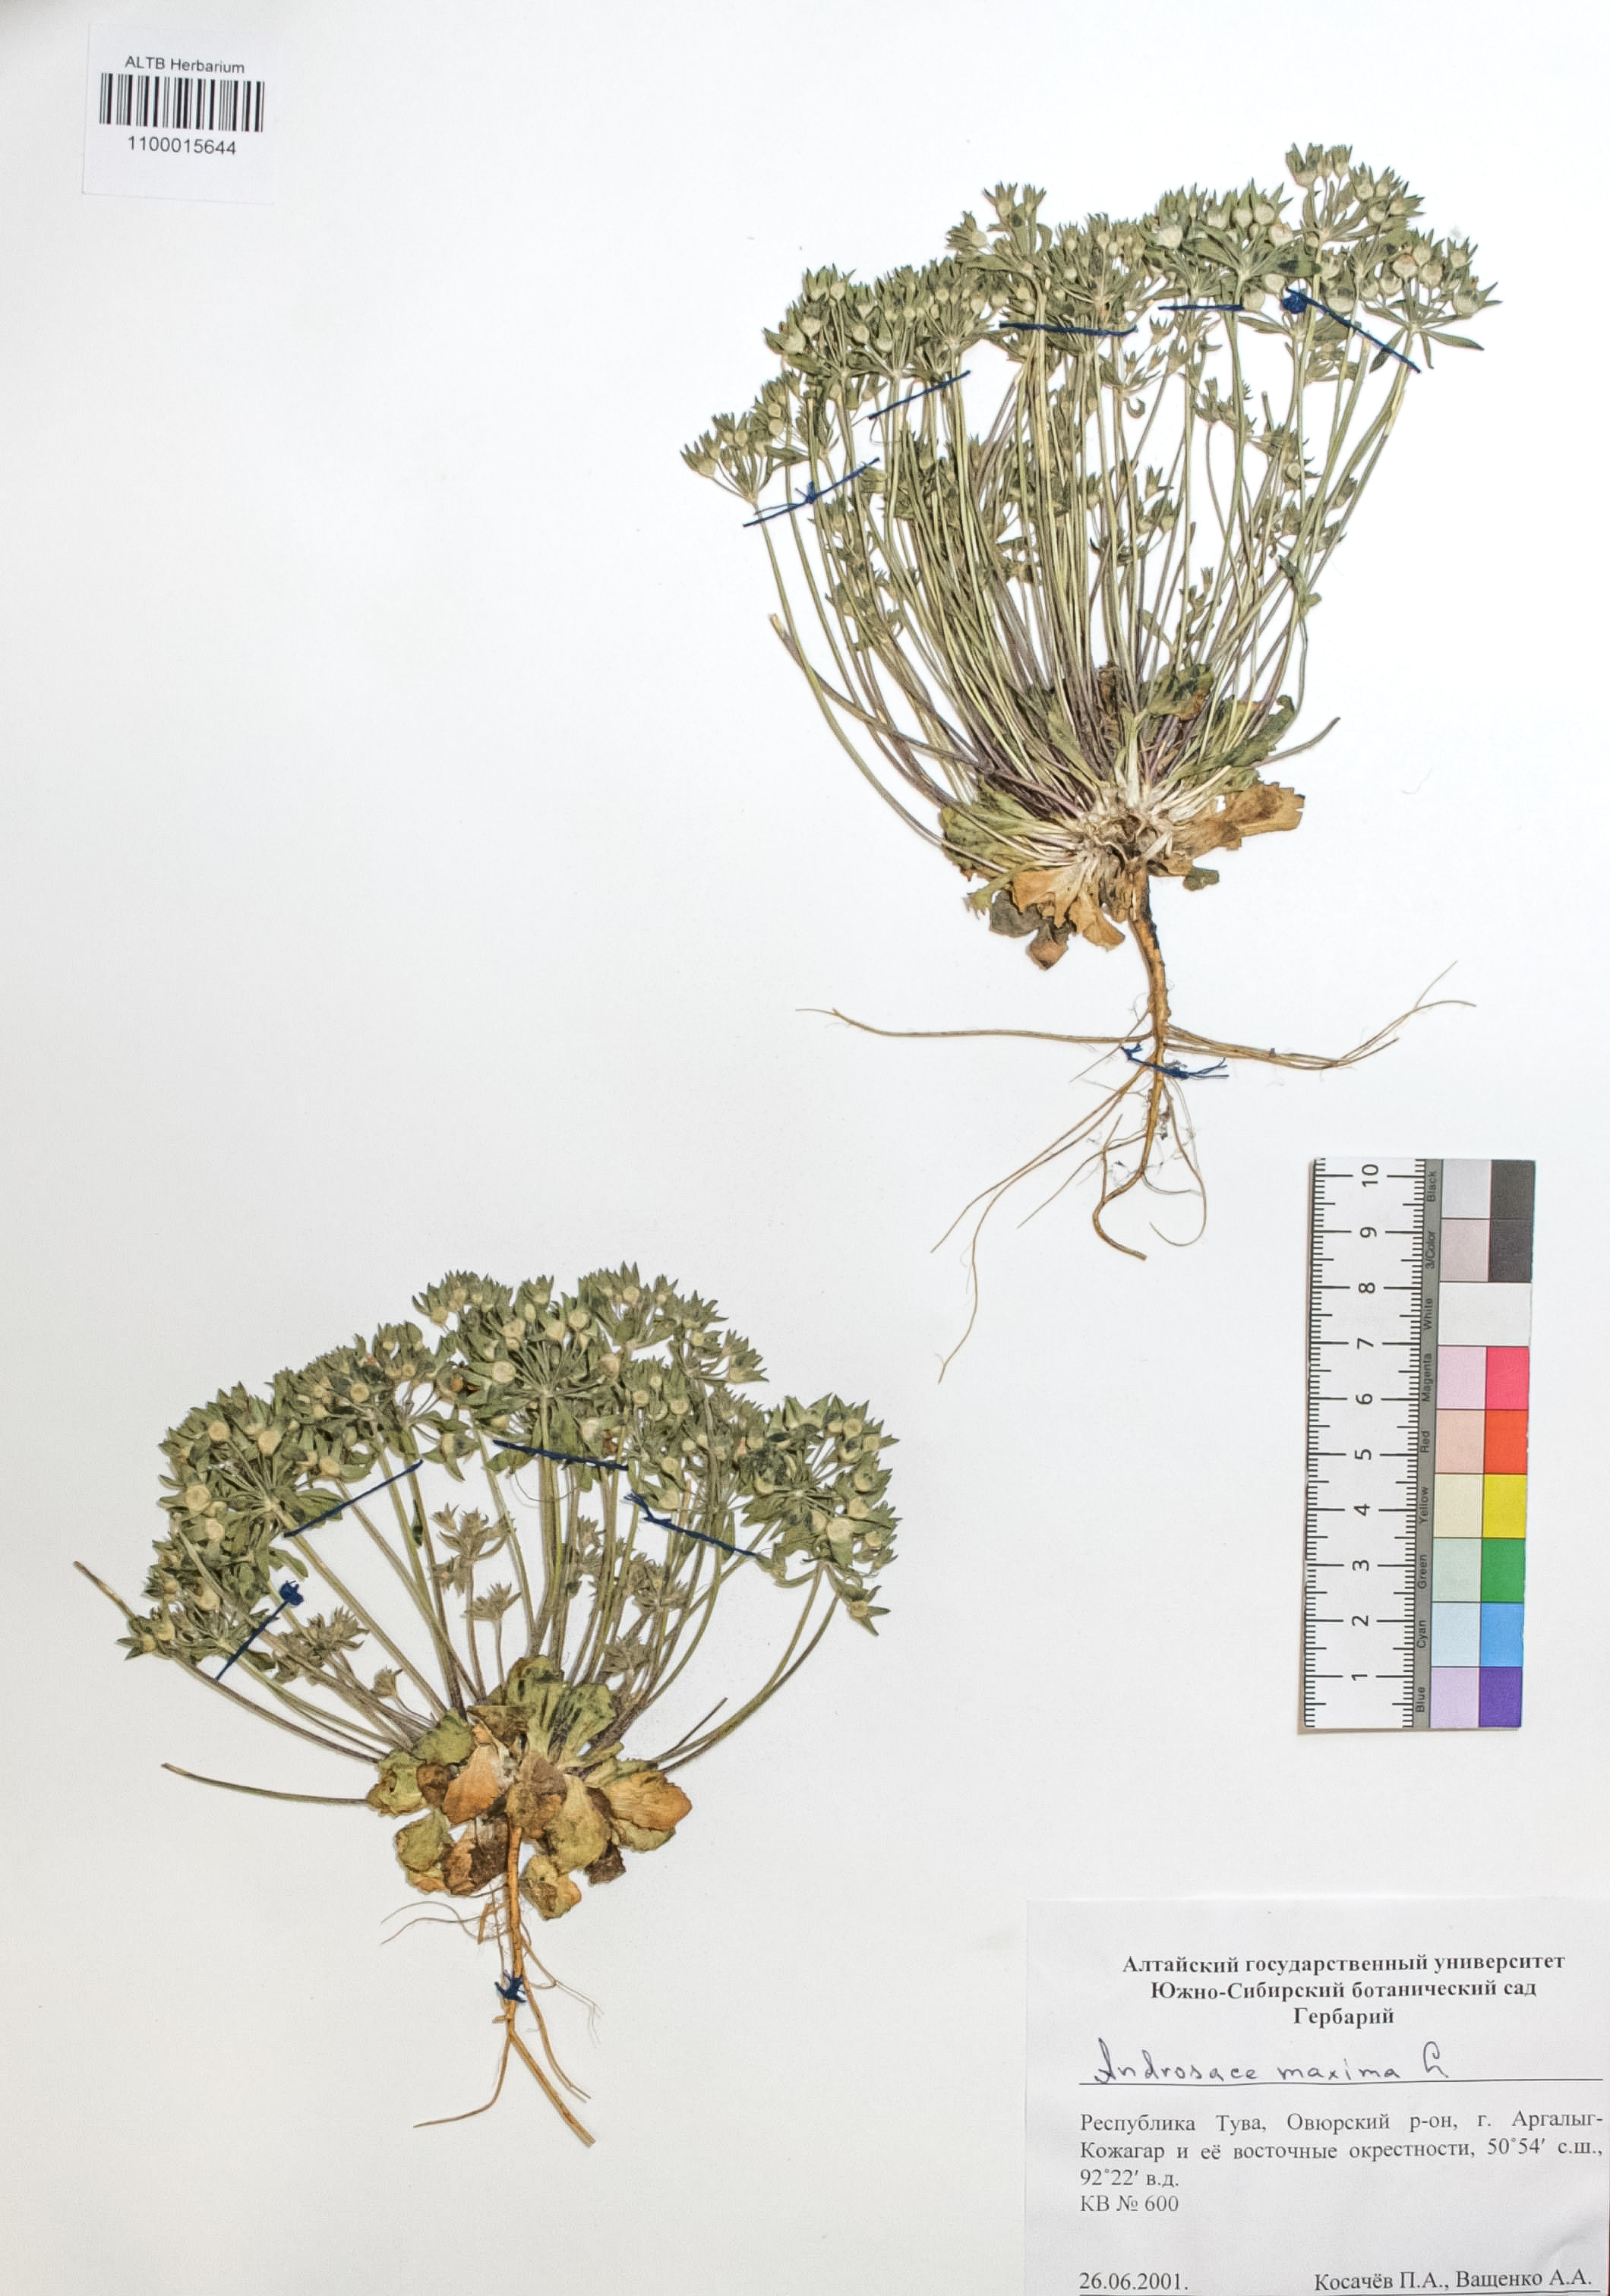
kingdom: Plantae
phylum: Tracheophyta
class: Magnoliopsida
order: Ericales
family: Primulaceae
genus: Androsace
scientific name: Androsace maxima
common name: Annual androsace
